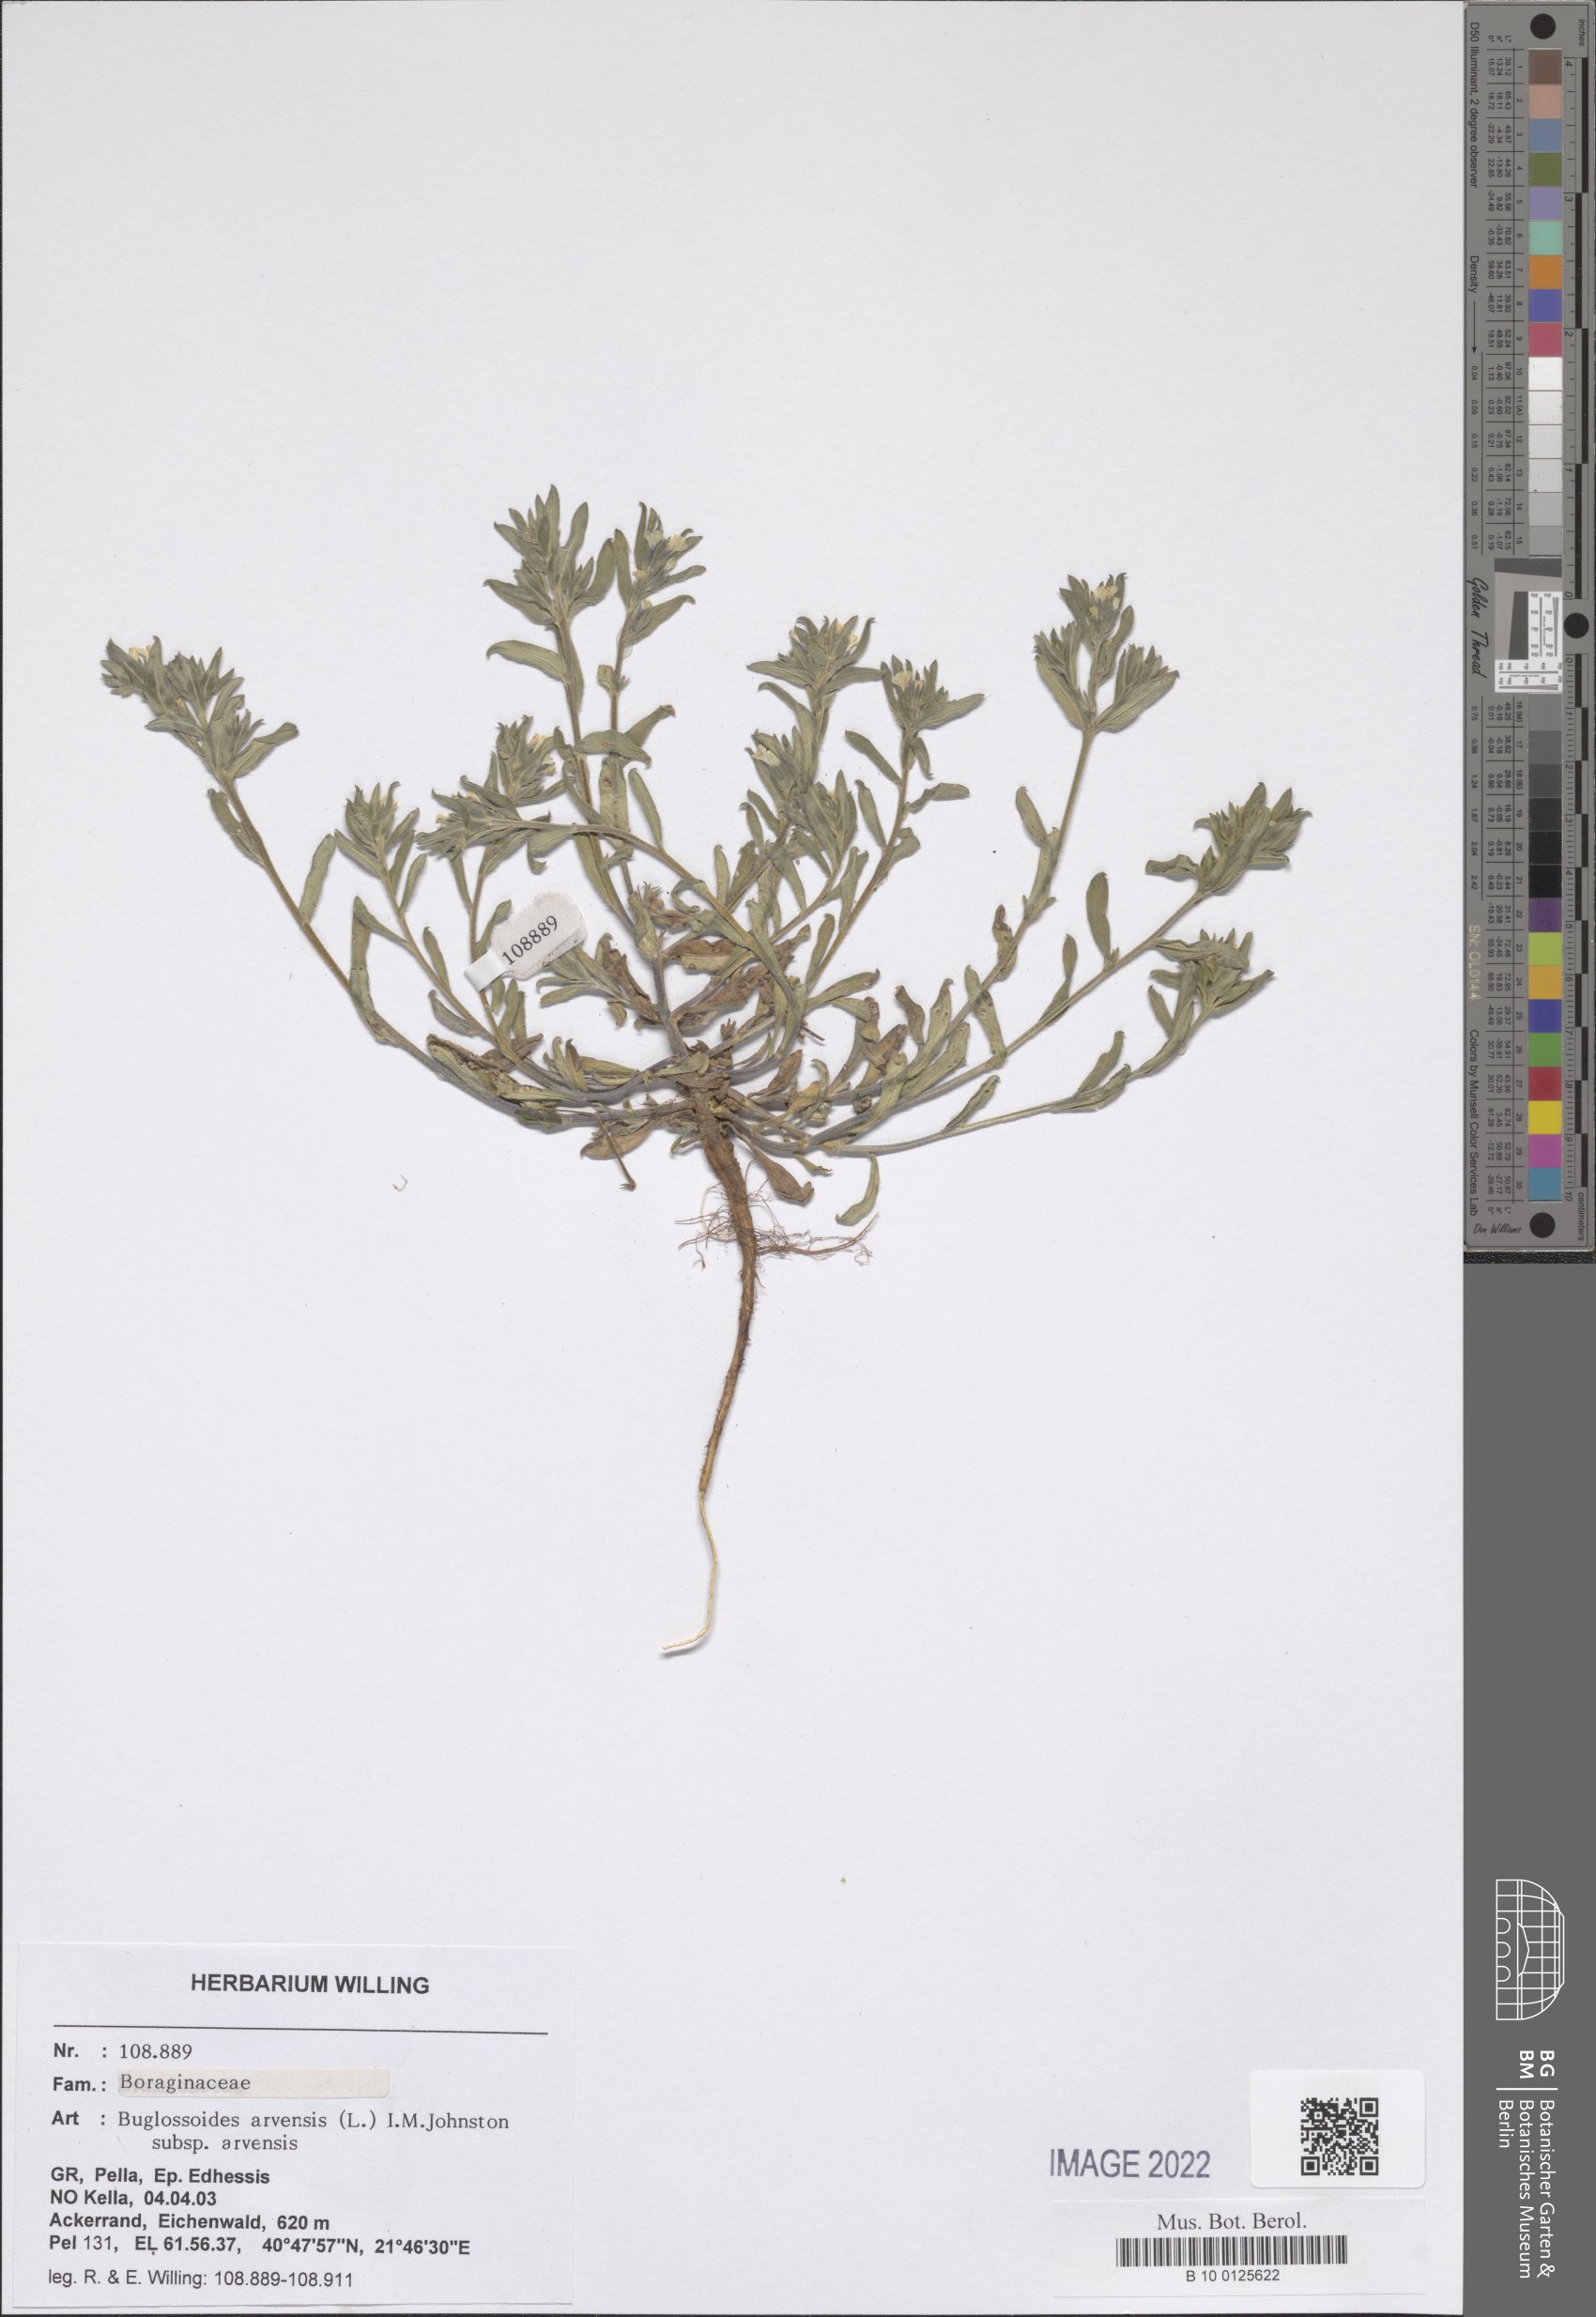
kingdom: Plantae
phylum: Tracheophyta
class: Magnoliopsida
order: Boraginales
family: Boraginaceae
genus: Buglossoides
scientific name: Buglossoides arvensis
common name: Corn gromwell
